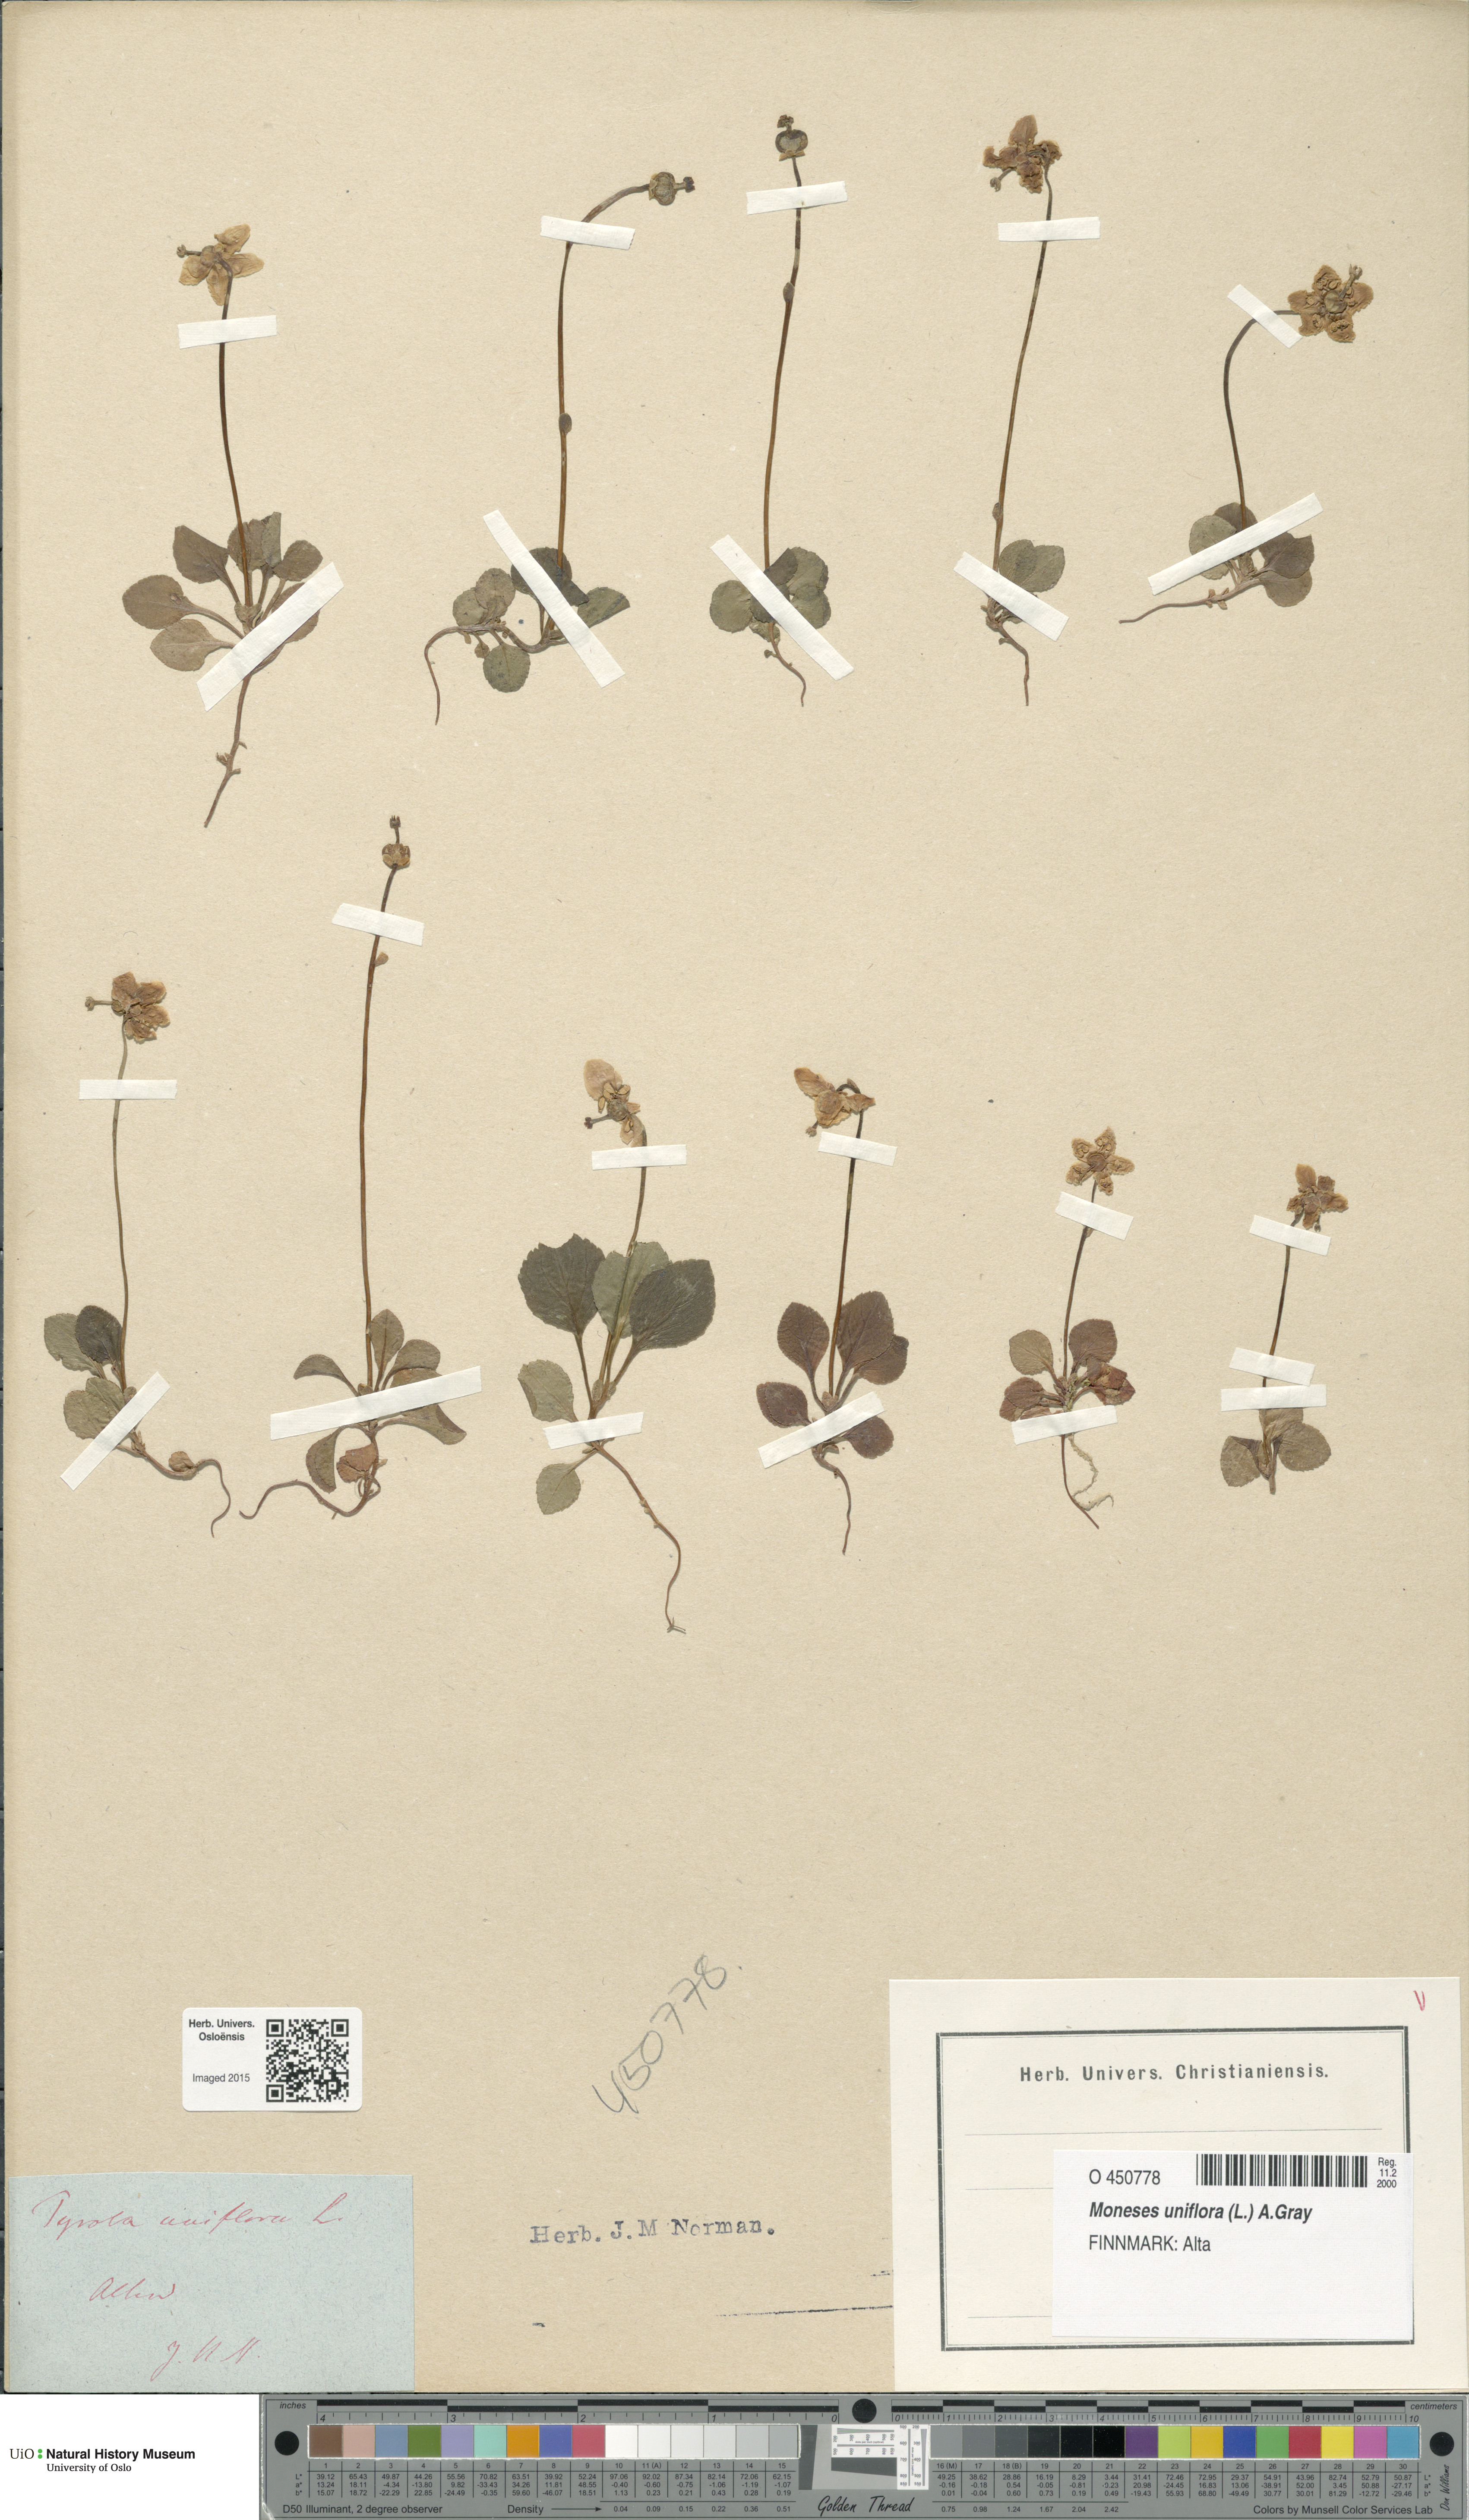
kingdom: Plantae
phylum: Tracheophyta
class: Magnoliopsida
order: Ericales
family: Ericaceae
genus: Moneses
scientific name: Moneses uniflora
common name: One-flowered wintergreen
